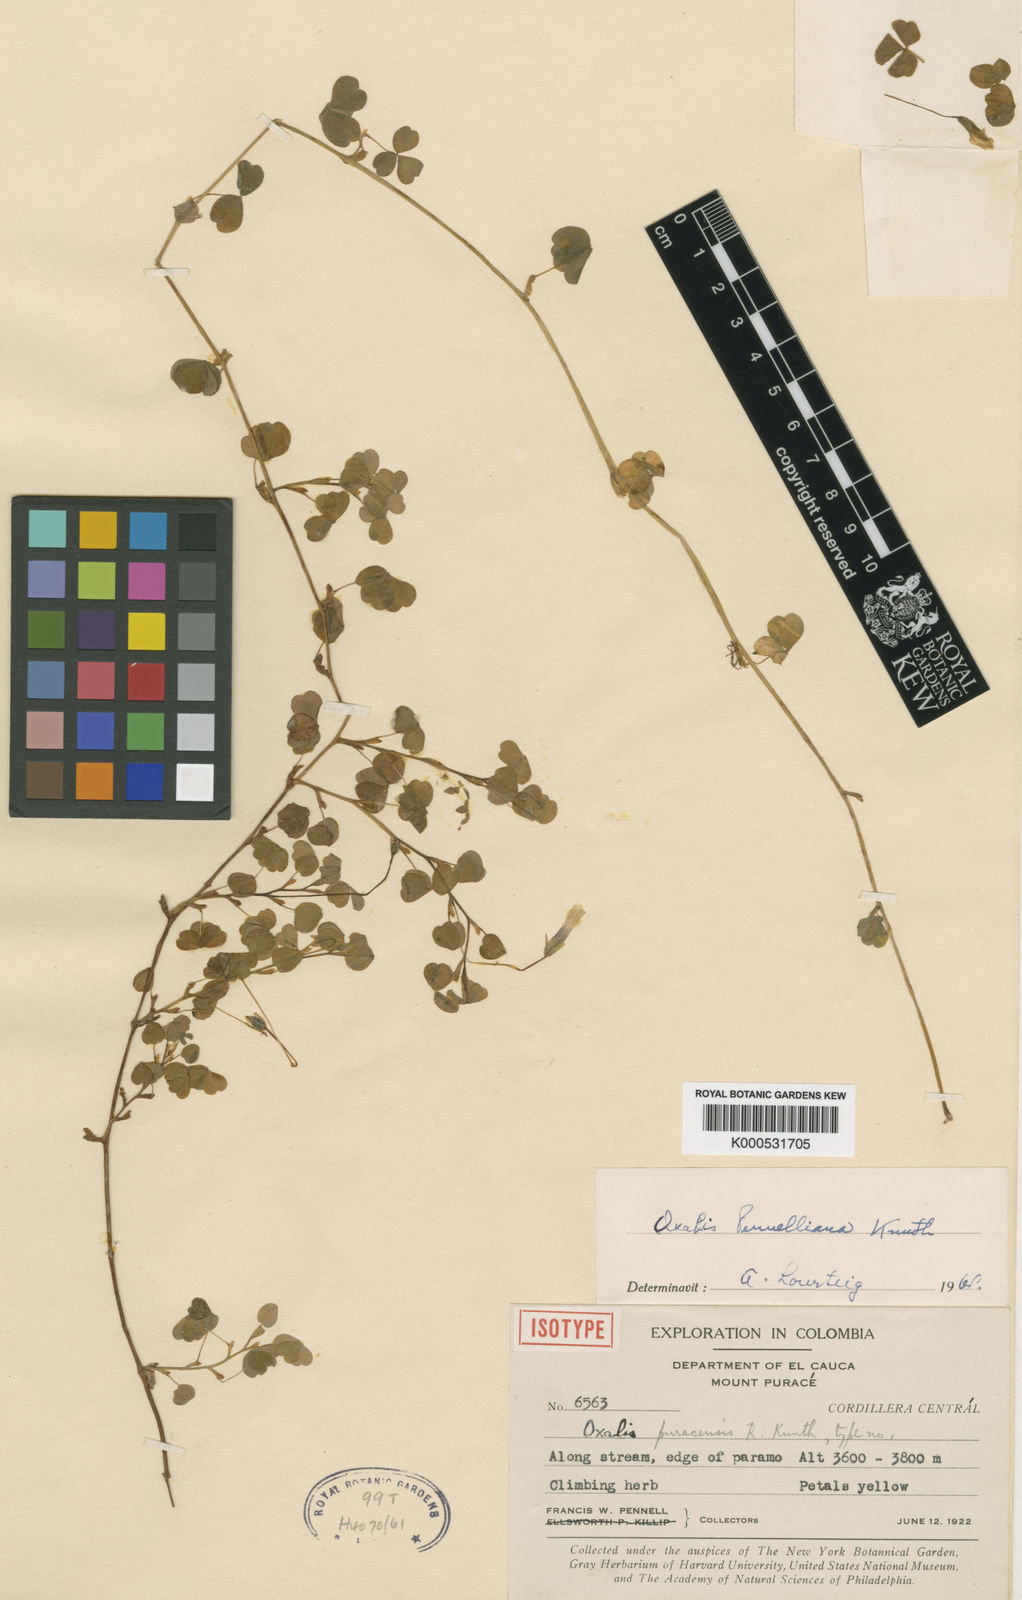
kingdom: Plantae
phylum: Tracheophyta
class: Magnoliopsida
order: Oxalidales
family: Oxalidaceae
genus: Oxalis
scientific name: Oxalis pennelliana
